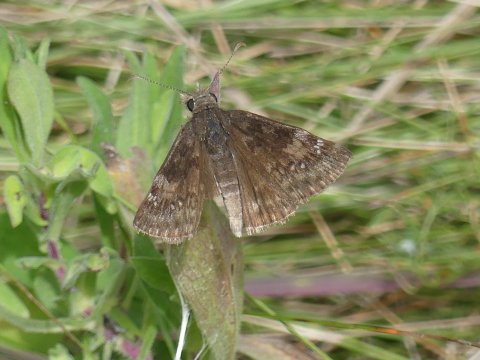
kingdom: Animalia
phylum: Arthropoda
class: Insecta
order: Lepidoptera
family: Hesperiidae
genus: Gesta
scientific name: Gesta
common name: Wild Indigo Duskywing
